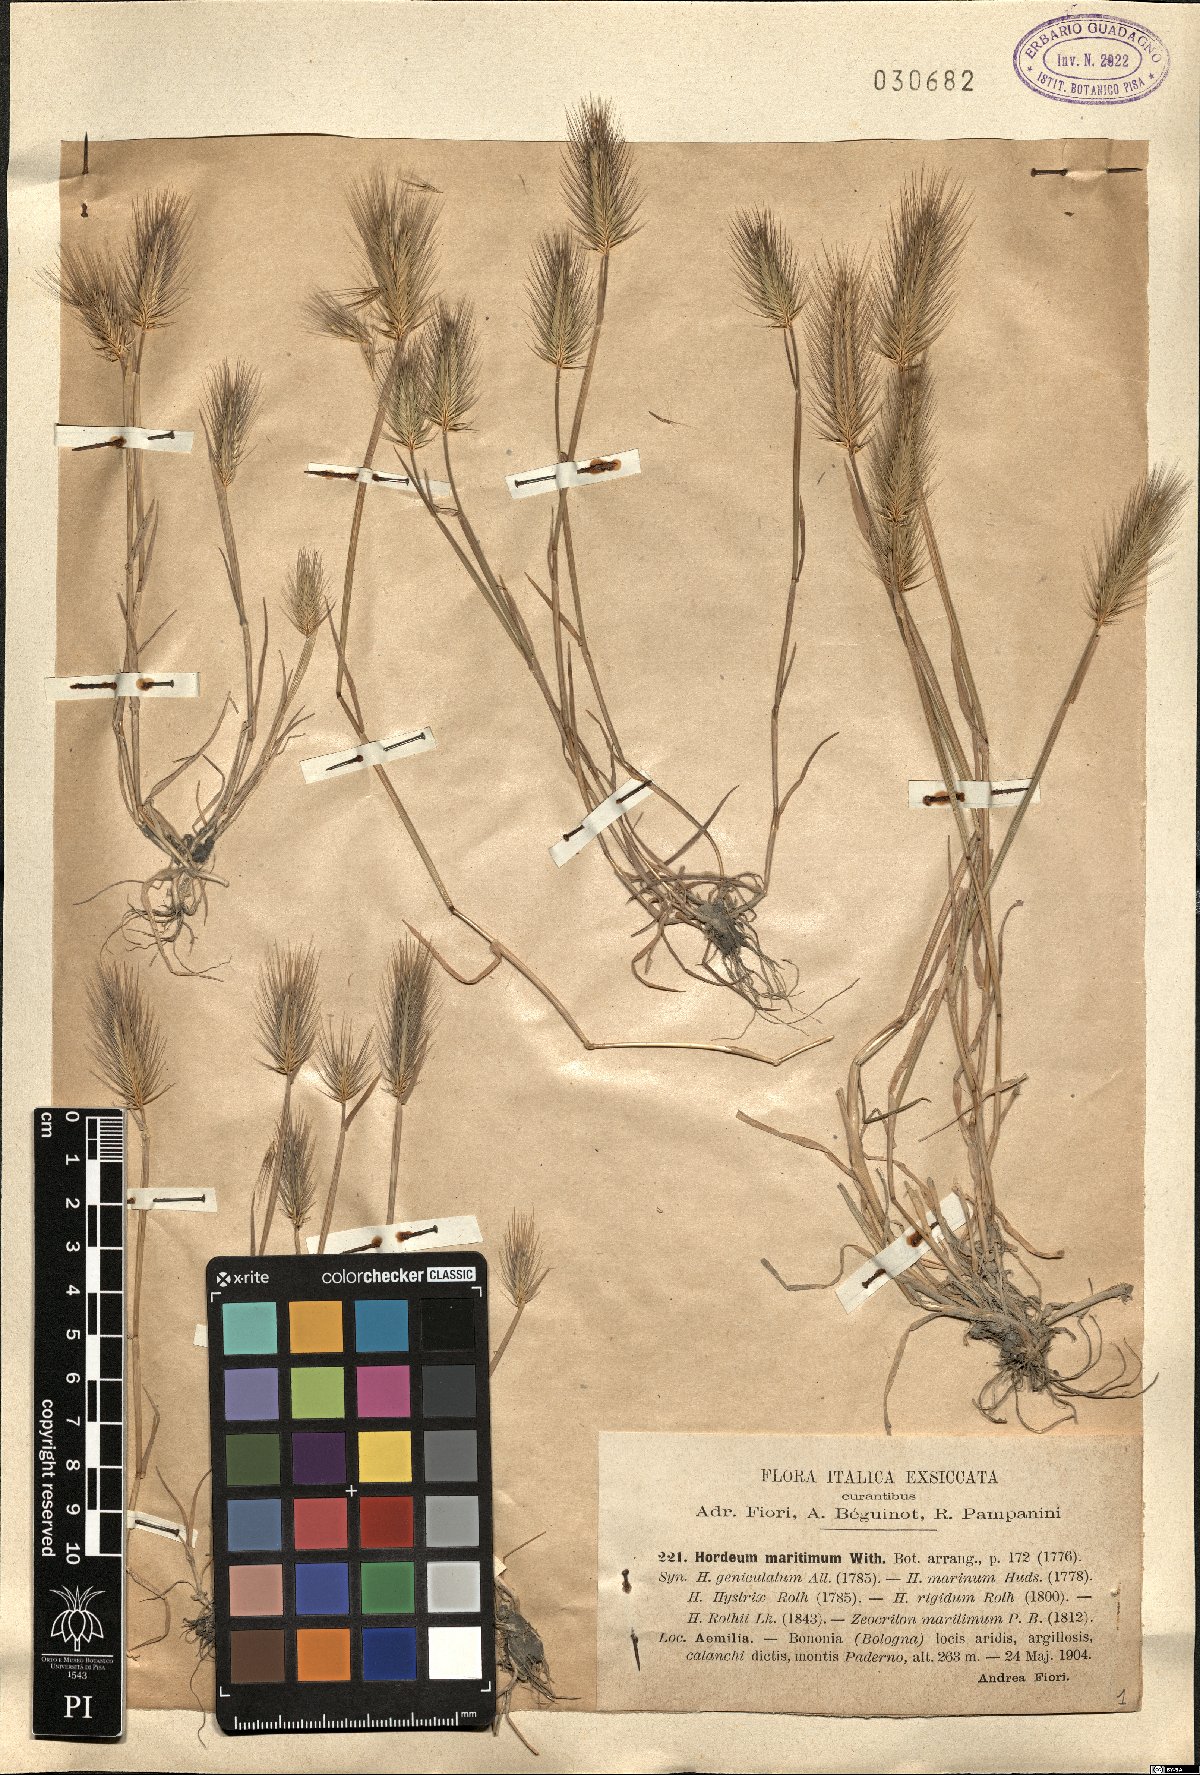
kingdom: Plantae
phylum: Tracheophyta
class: Liliopsida
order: Poales
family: Poaceae
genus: Hordeum
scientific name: Hordeum marinum
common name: Sea barley
